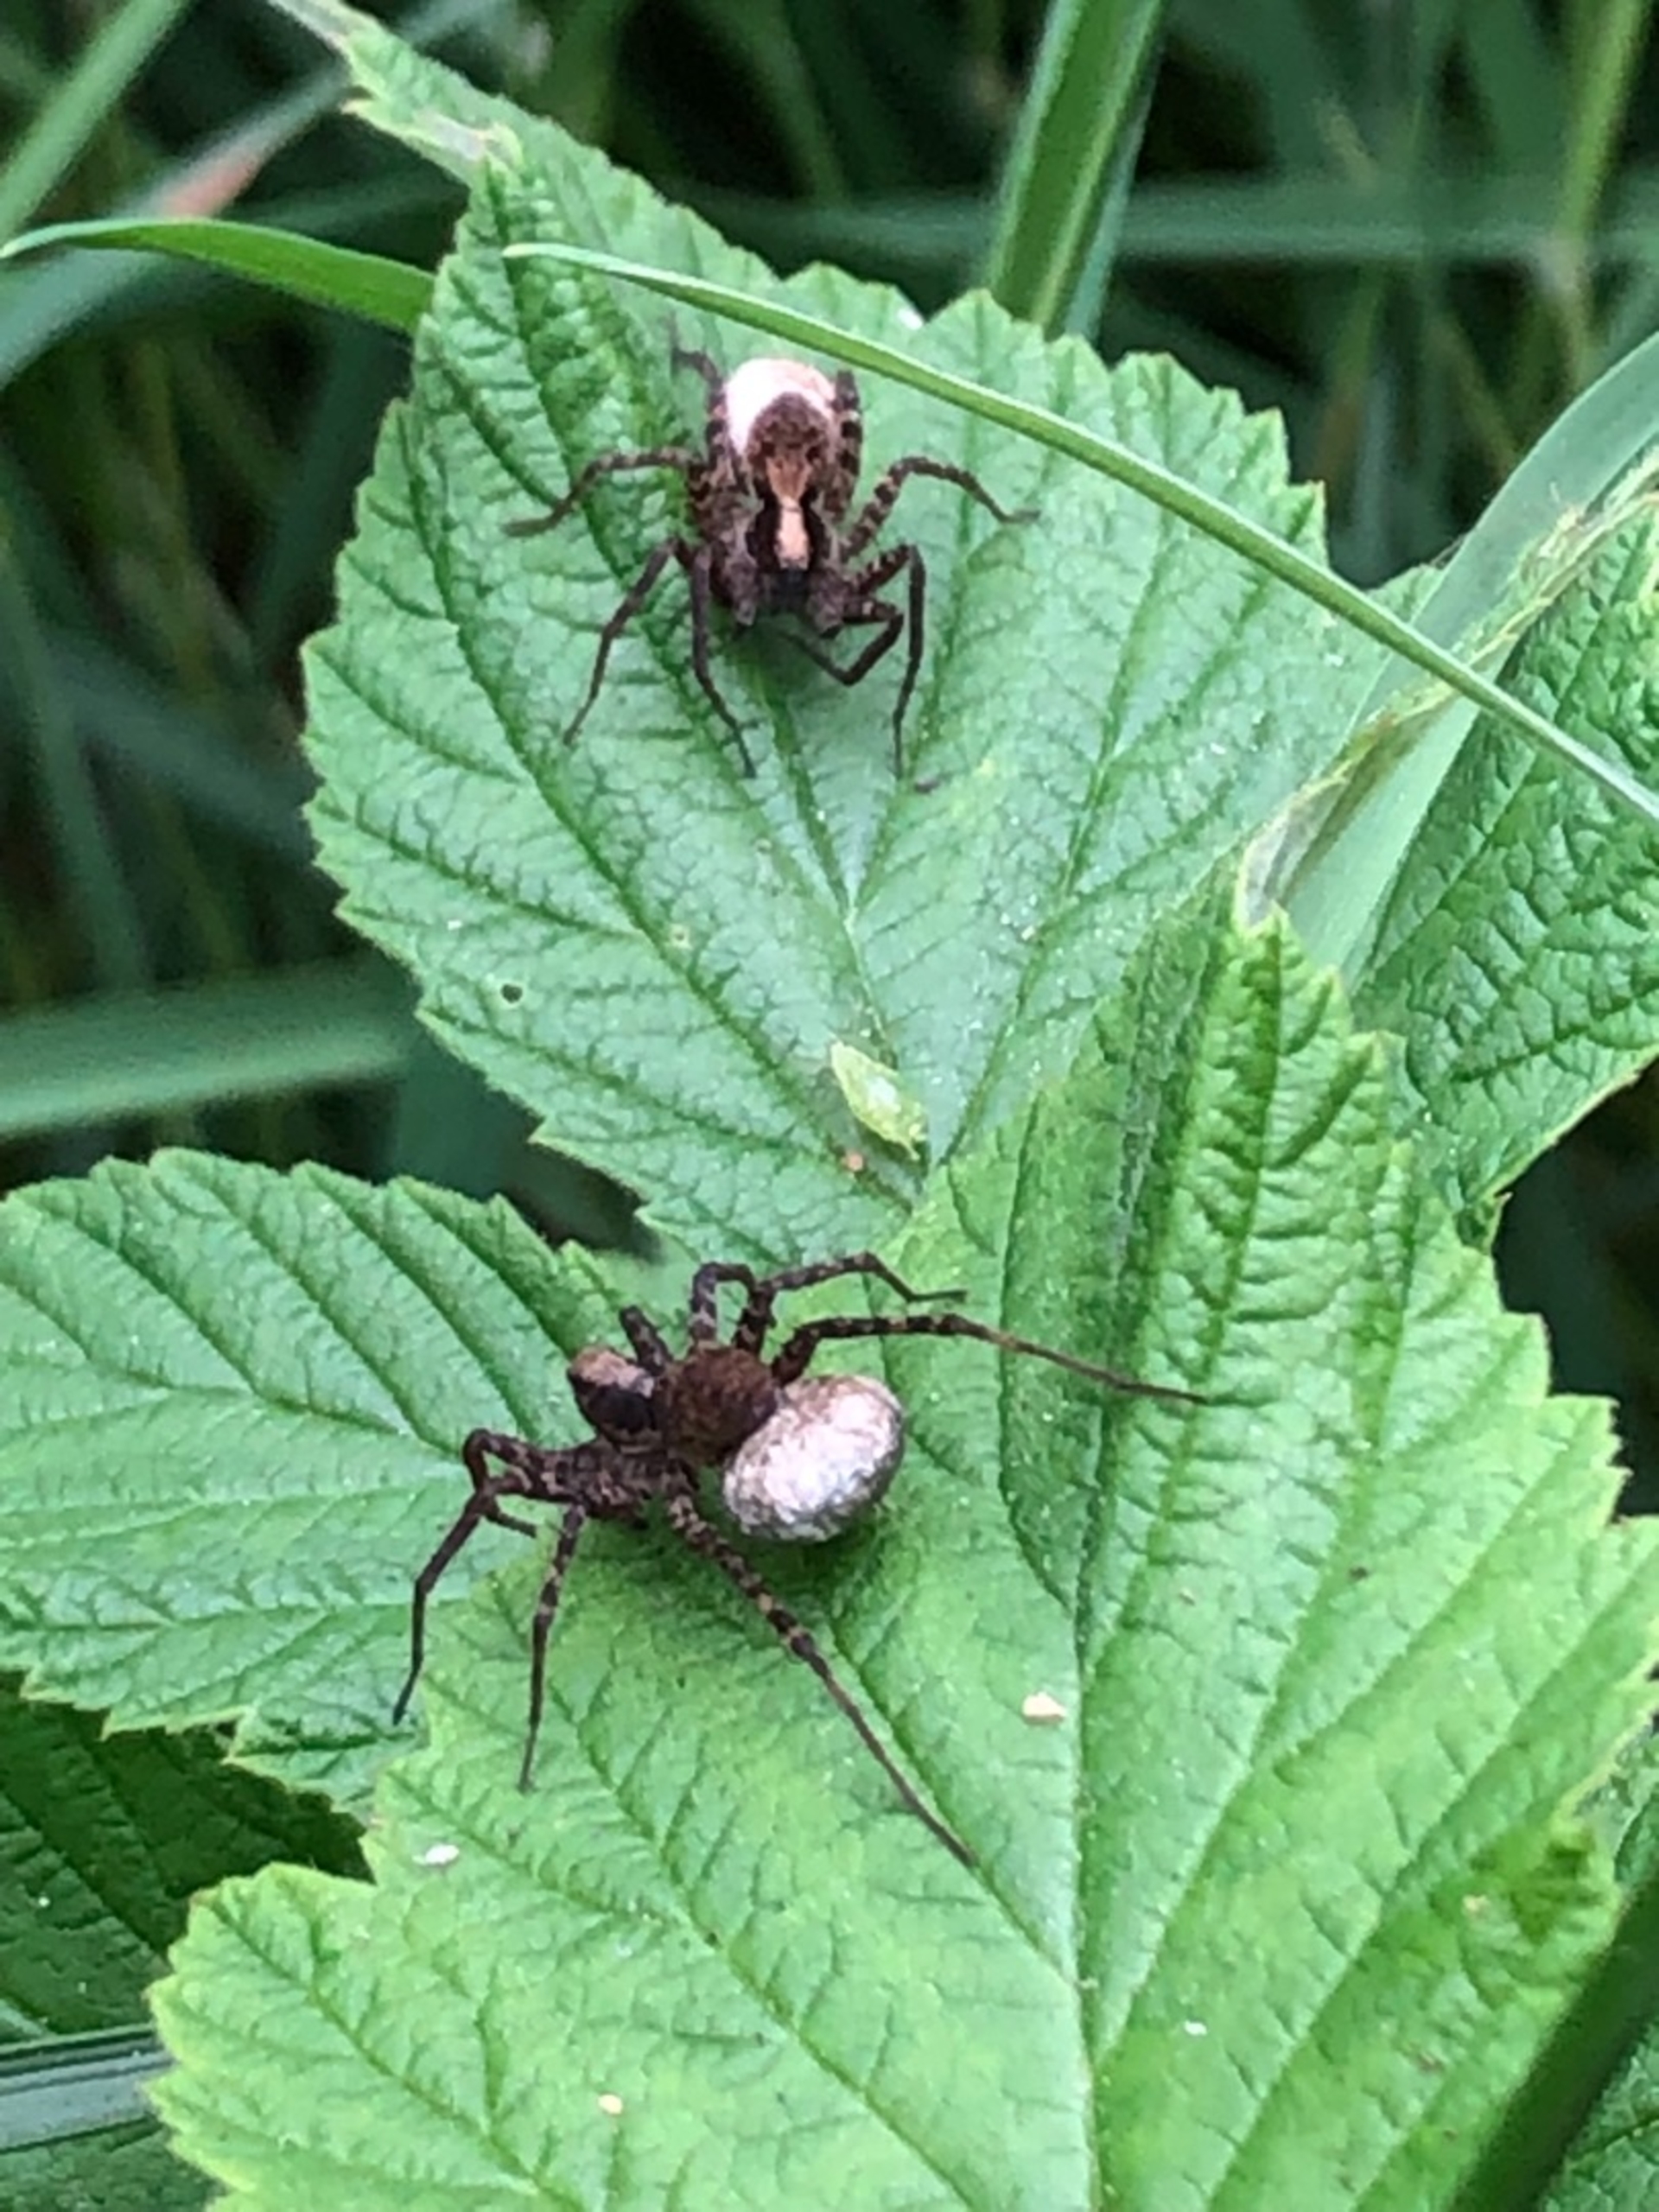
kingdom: Animalia
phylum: Arthropoda
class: Arachnida
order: Araneae
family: Lycosidae
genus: Pardosa
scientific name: Pardosa
